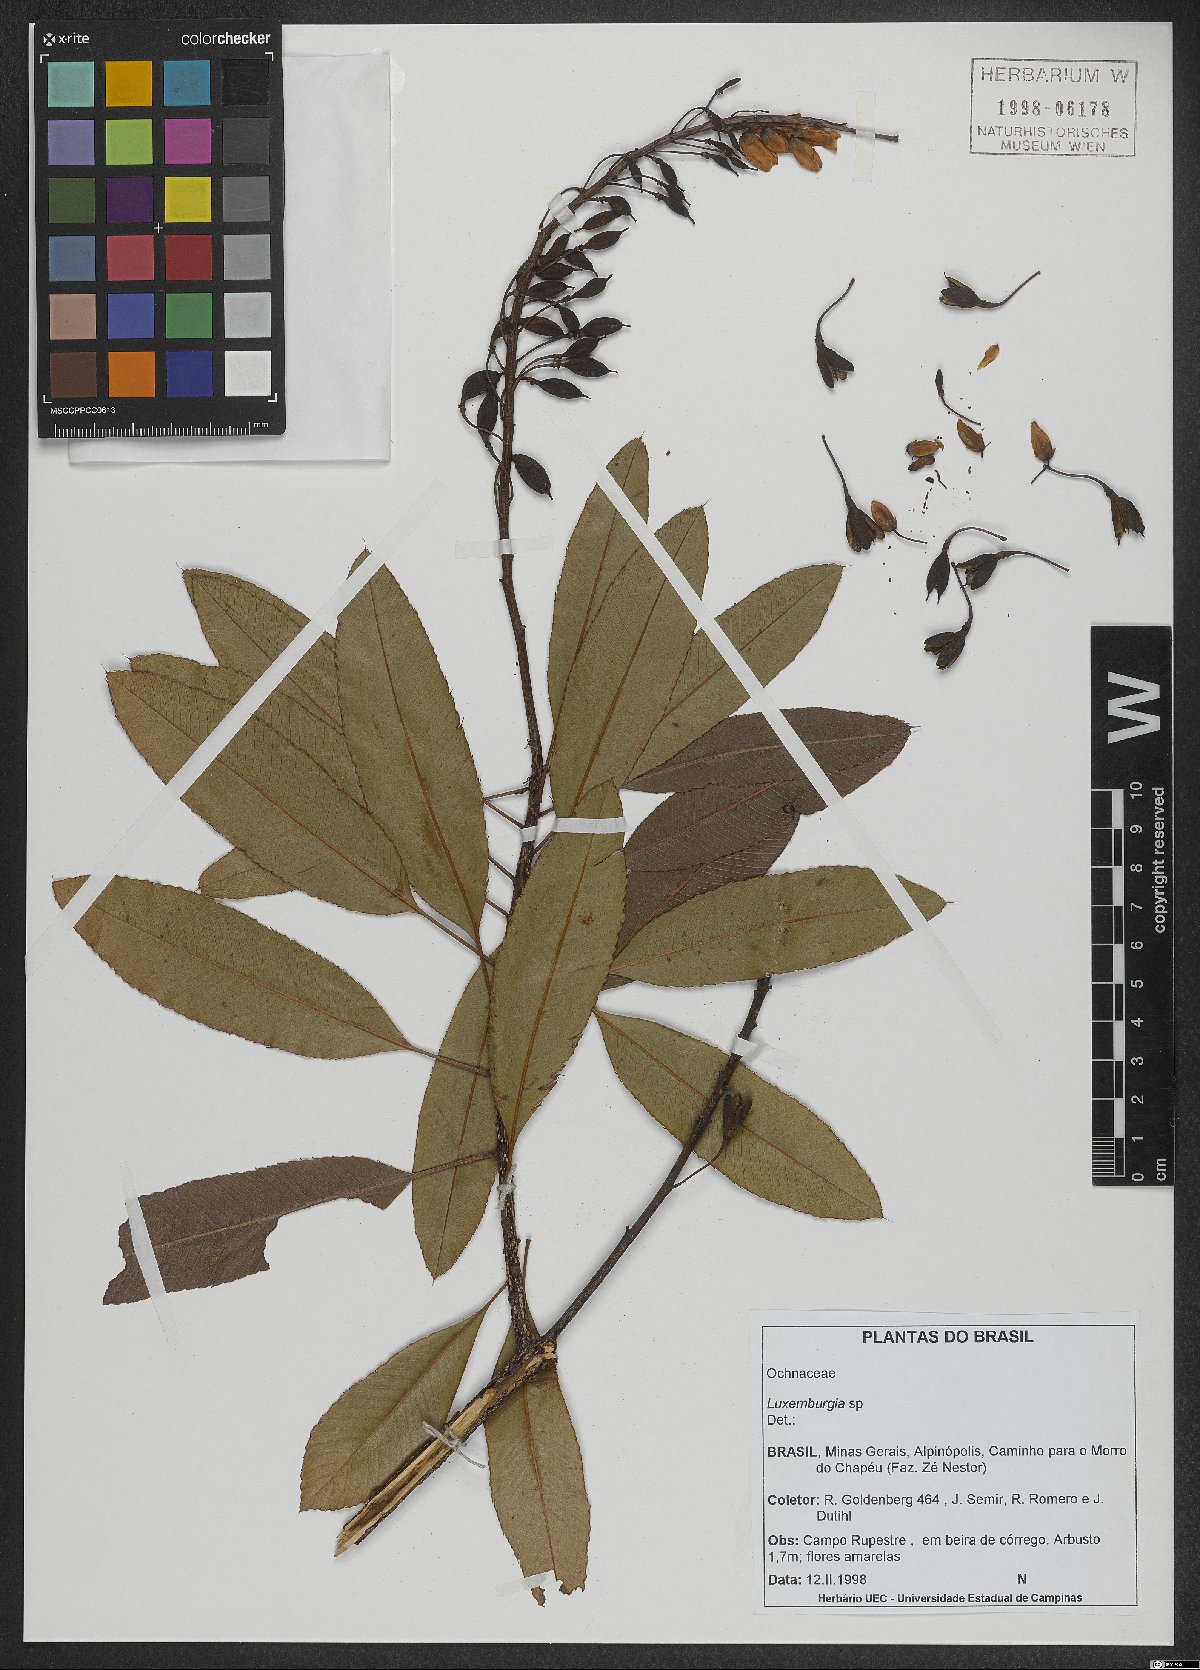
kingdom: Plantae
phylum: Tracheophyta
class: Magnoliopsida
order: Malpighiales
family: Ochnaceae
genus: Luxemburgia
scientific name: Luxemburgia
